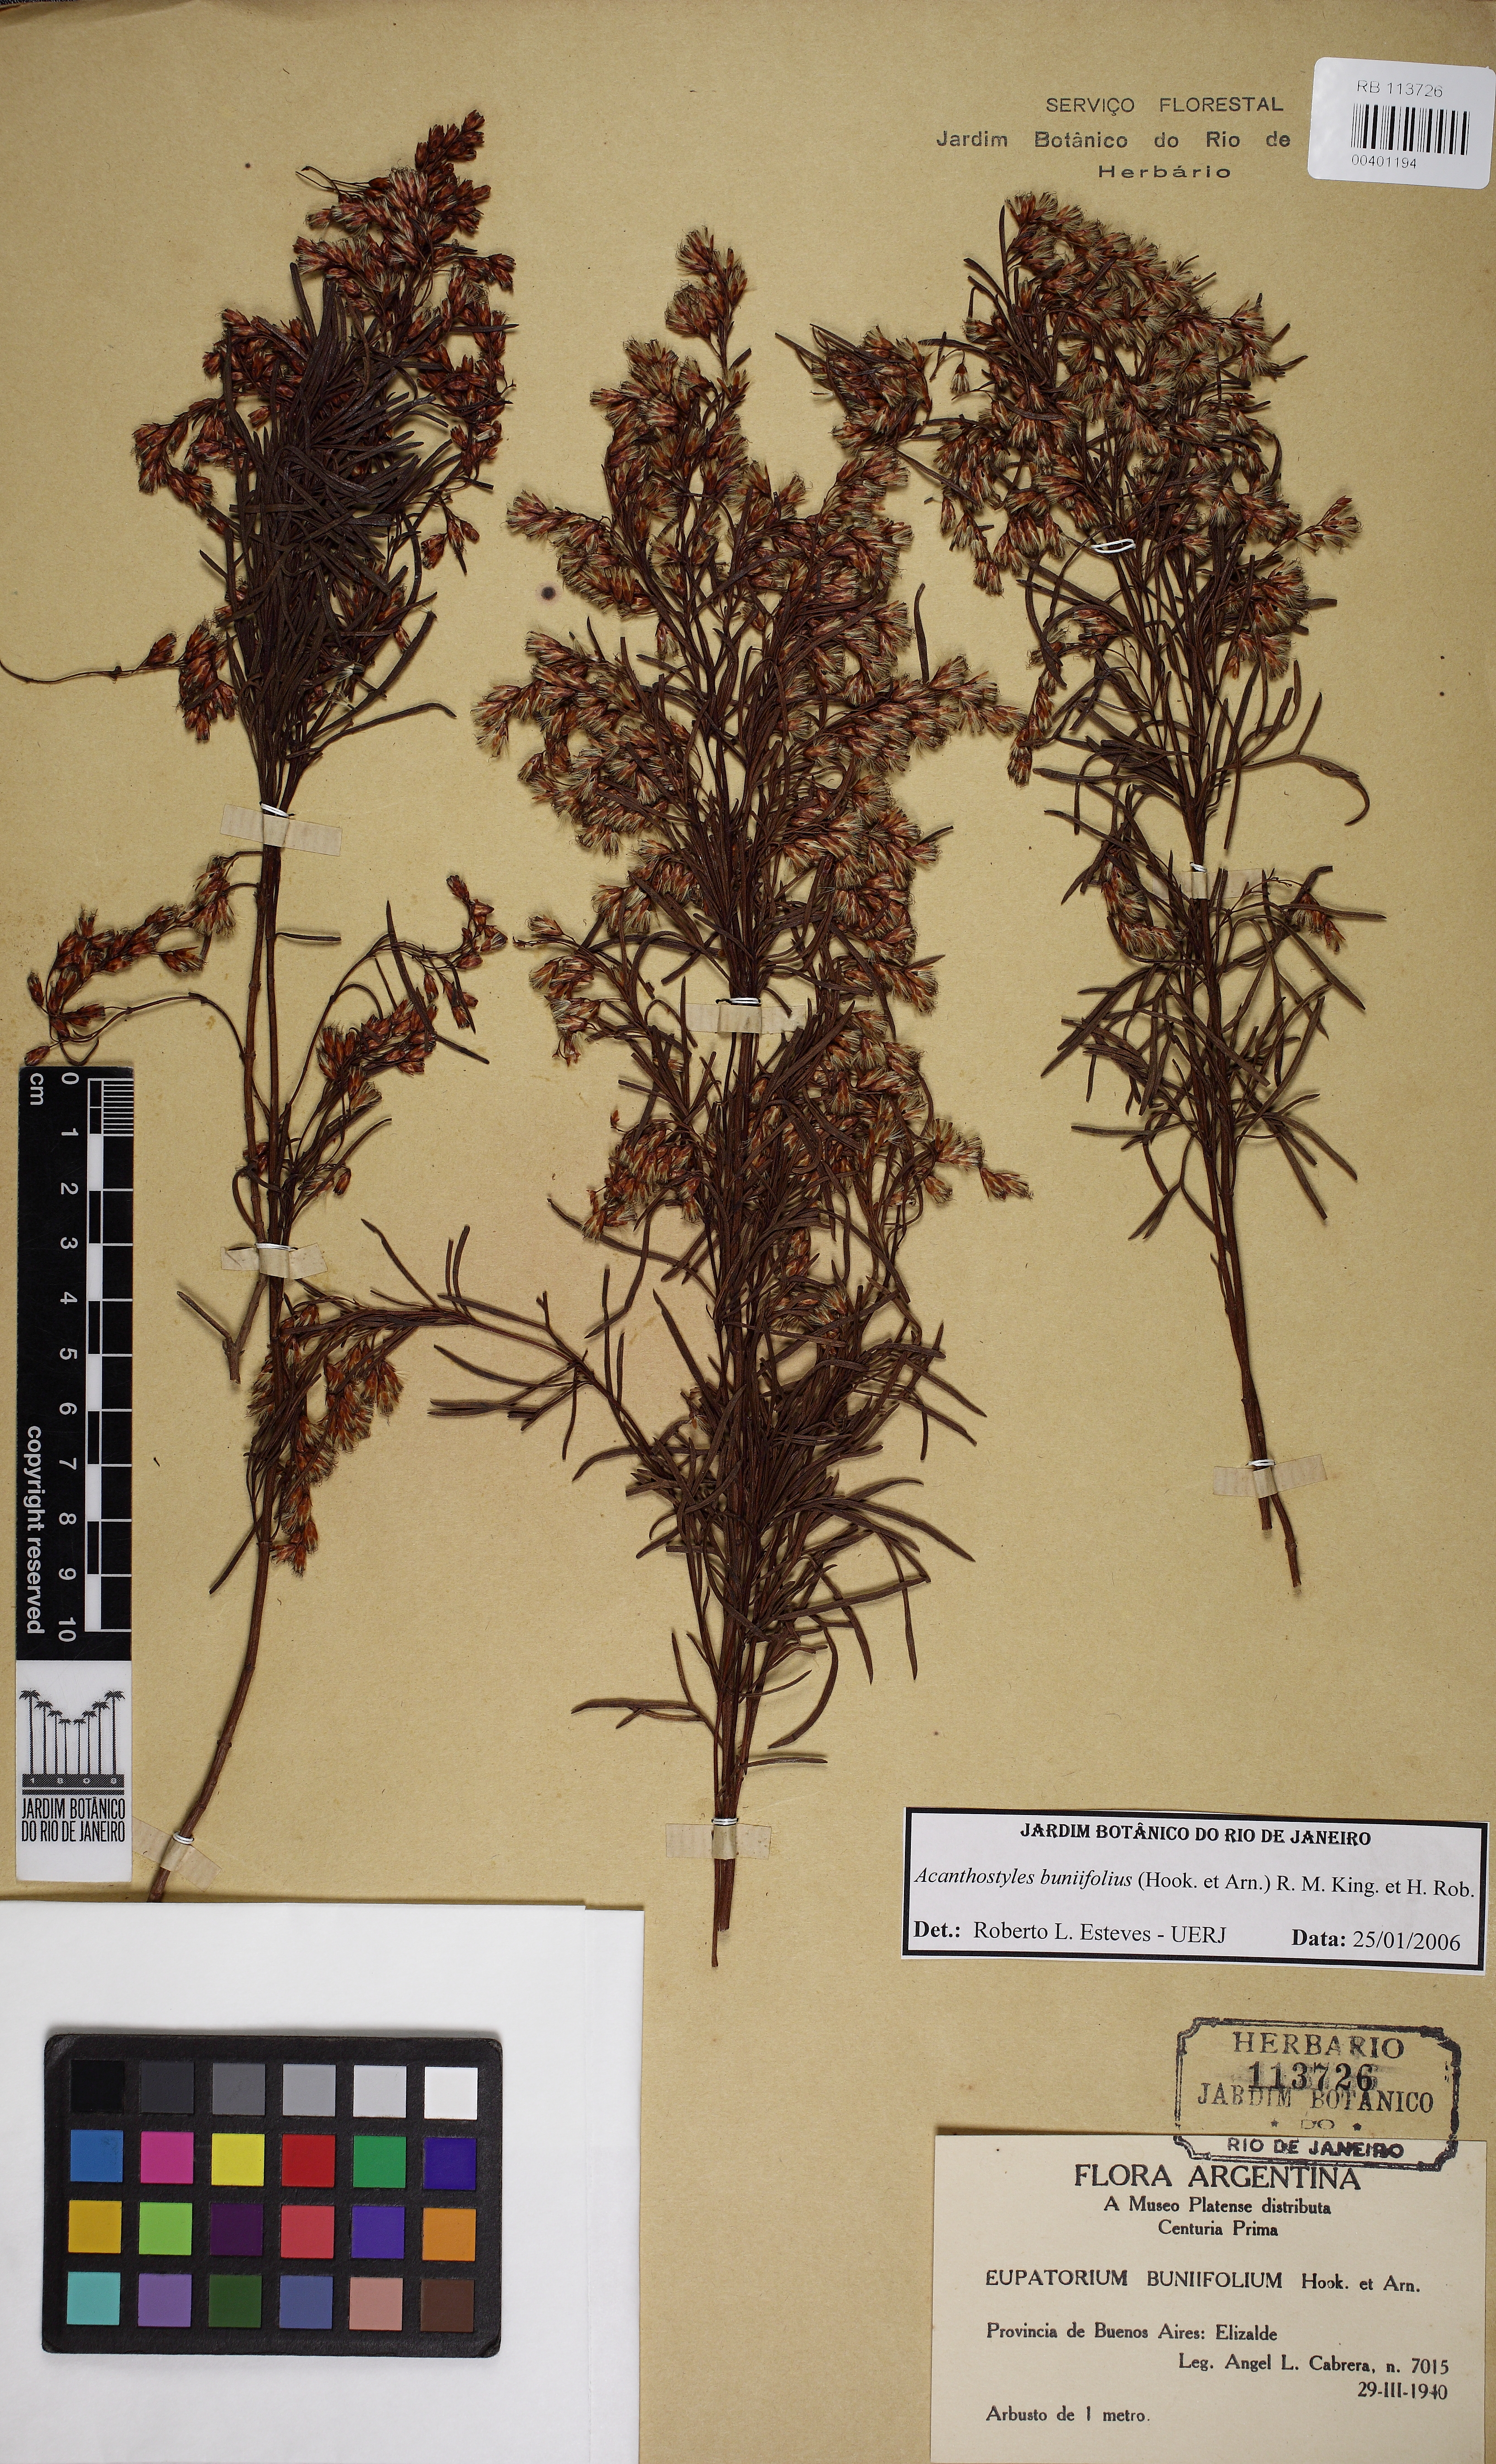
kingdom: Plantae
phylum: Tracheophyta
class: Magnoliopsida
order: Asterales
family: Asteraceae
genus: Acanthostyles
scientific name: Acanthostyles buniifolius
